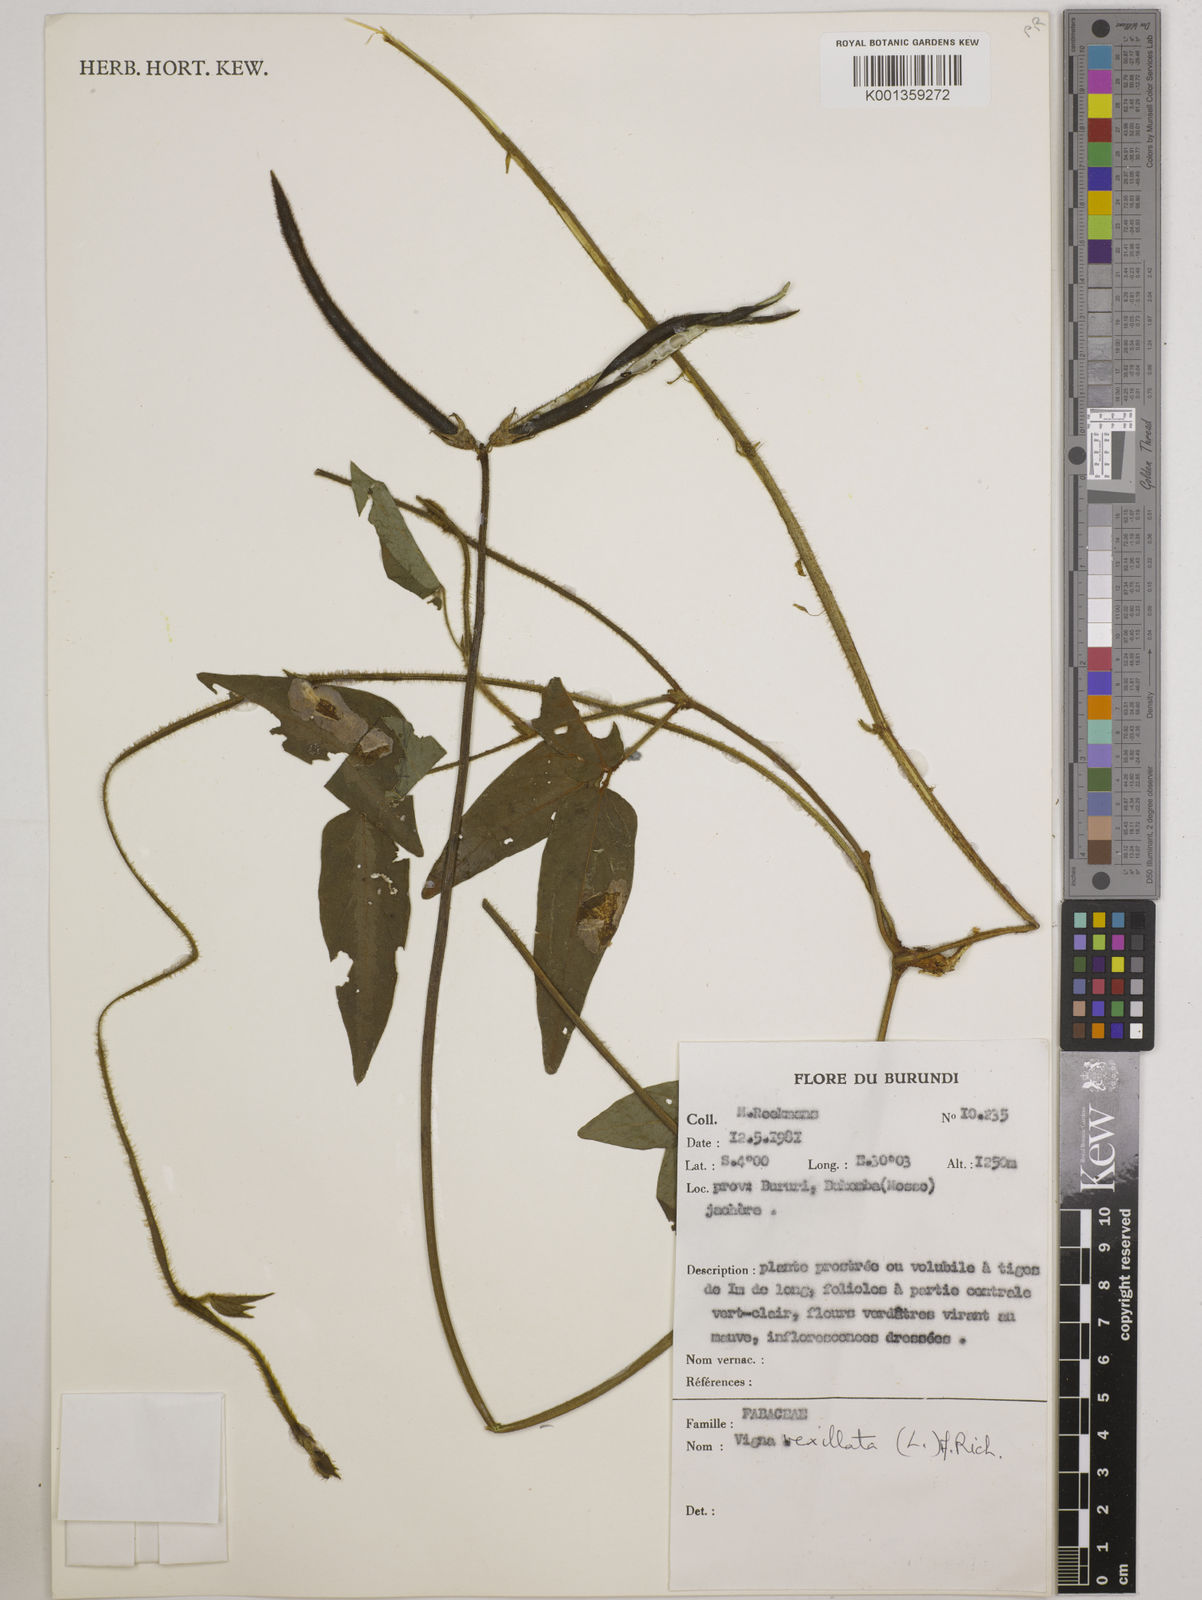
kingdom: Plantae
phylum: Tracheophyta
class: Magnoliopsida
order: Fabales
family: Fabaceae
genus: Vigna
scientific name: Vigna vexillata
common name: Zombi pea
